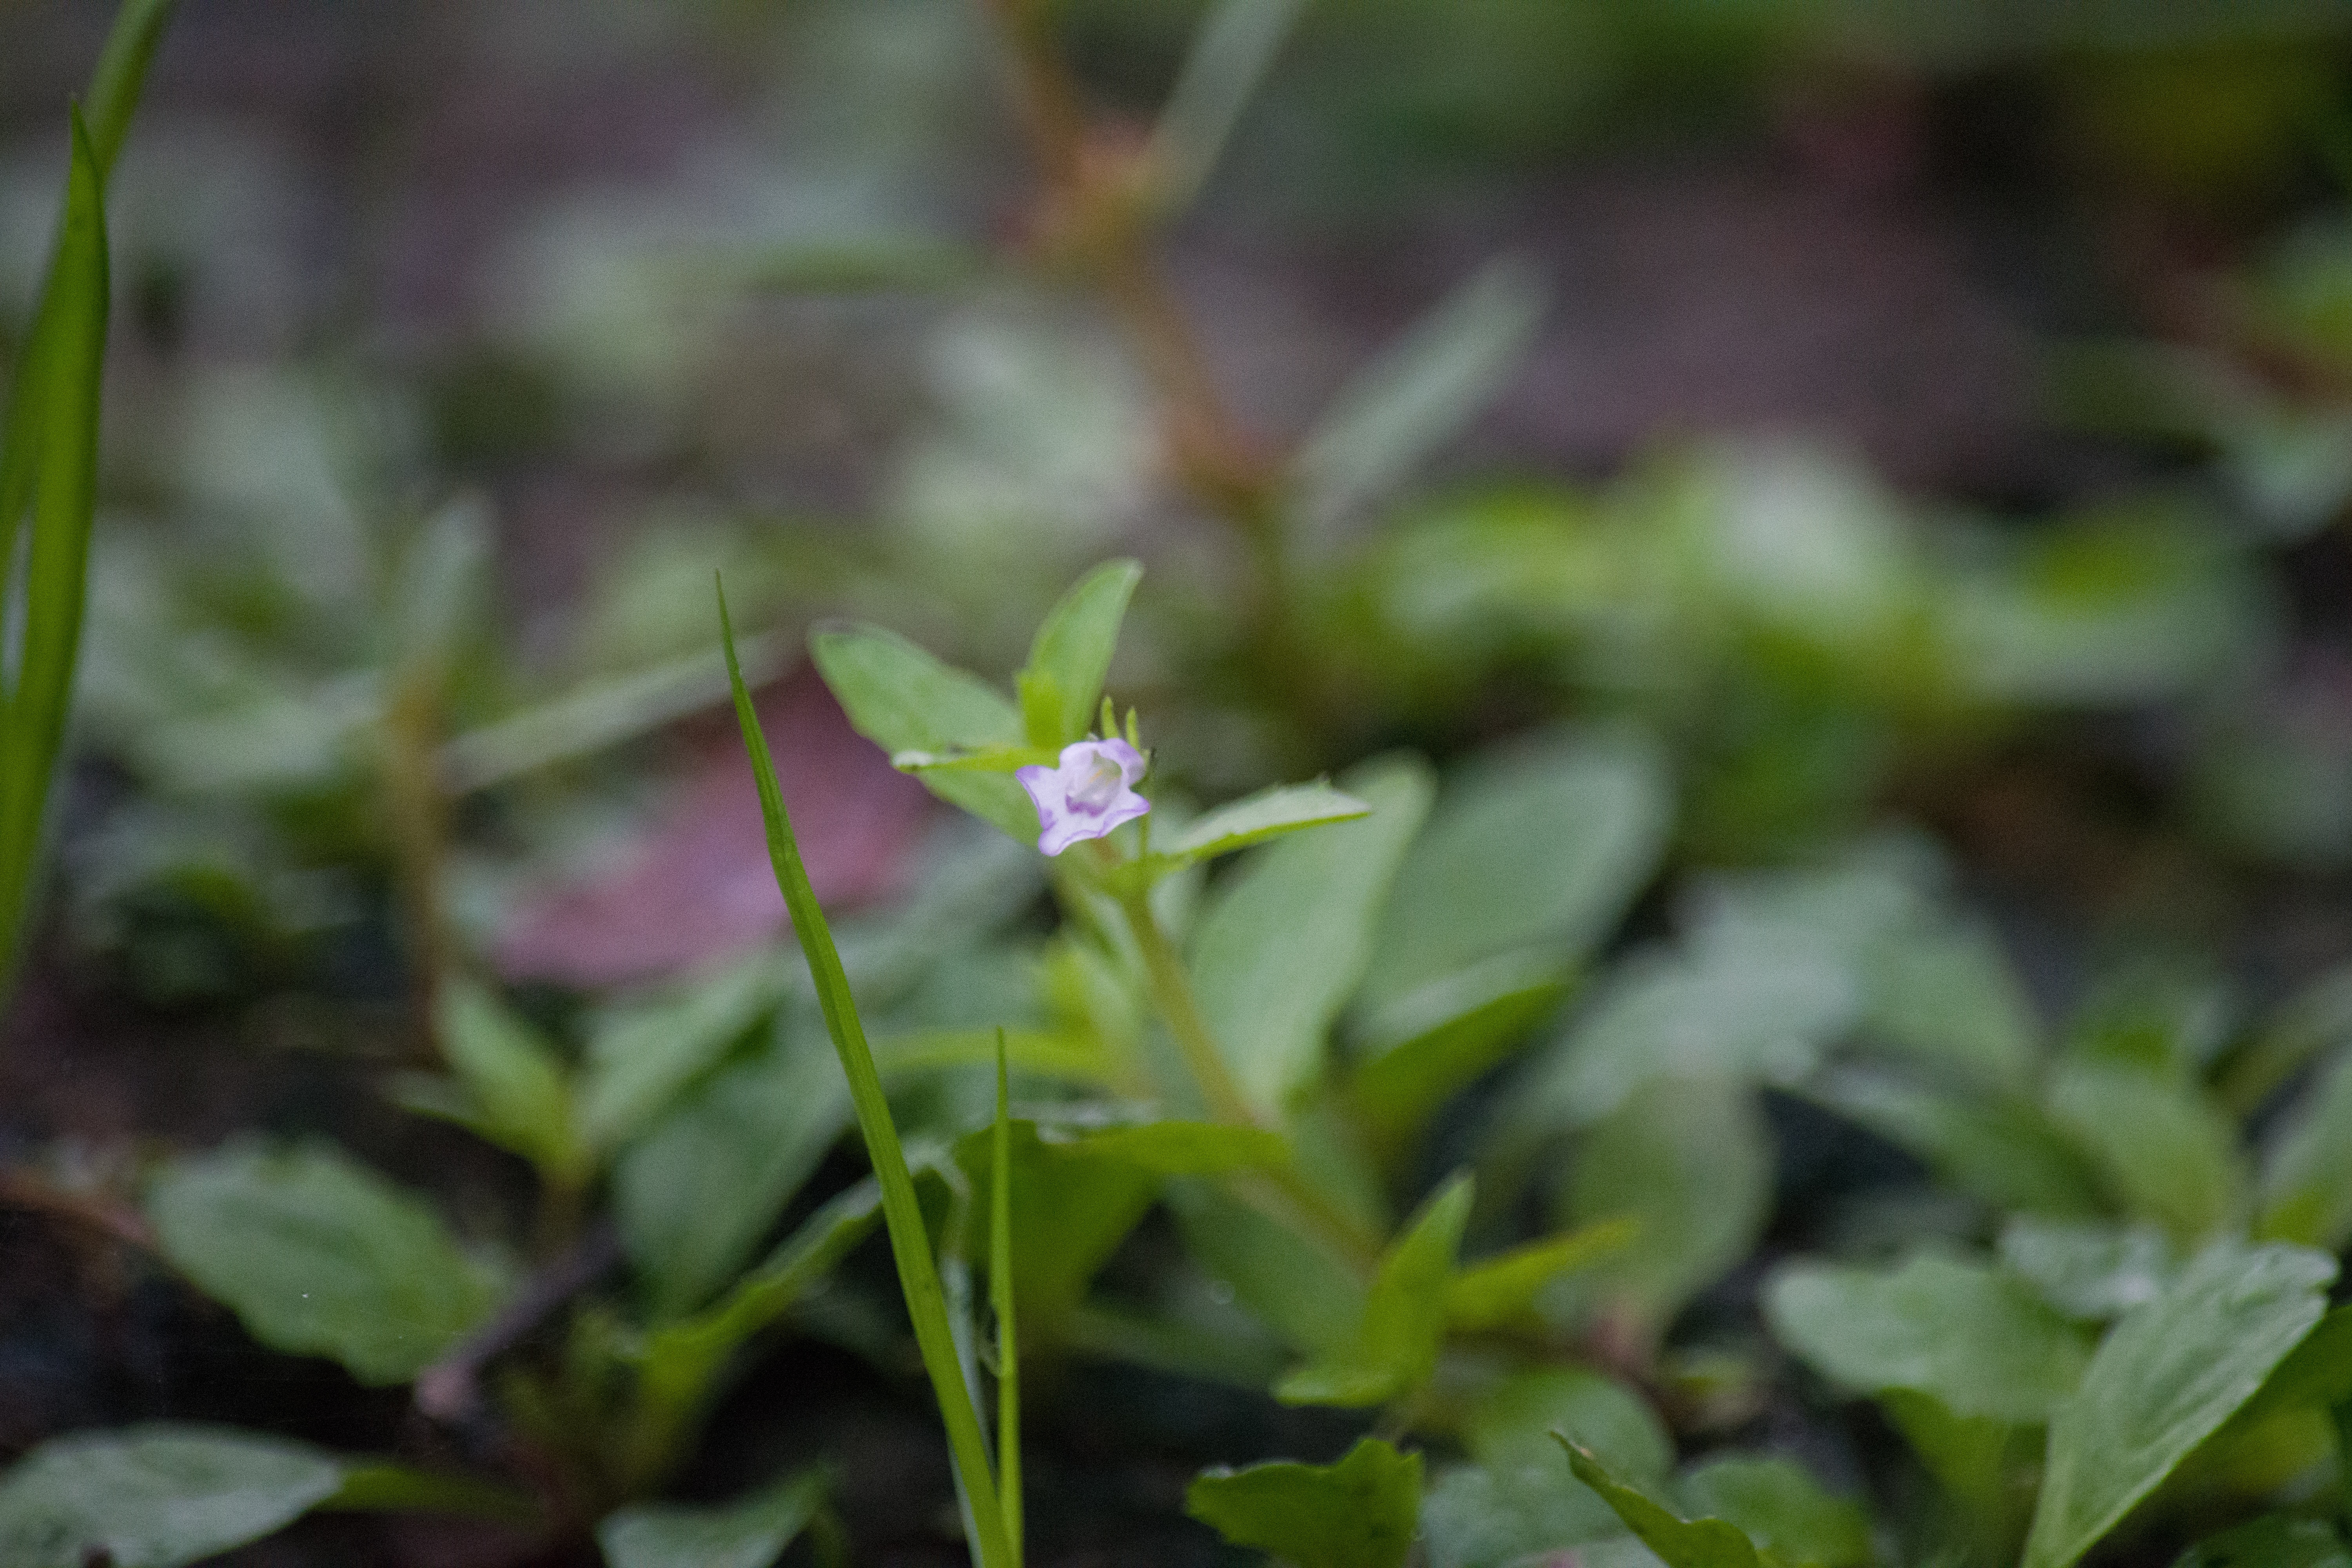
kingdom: Plantae
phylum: Tracheophyta
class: Magnoliopsida
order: Lamiales
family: Linderniaceae
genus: Lindernia
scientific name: Lindernia dubia
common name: Annual false pimpernel
